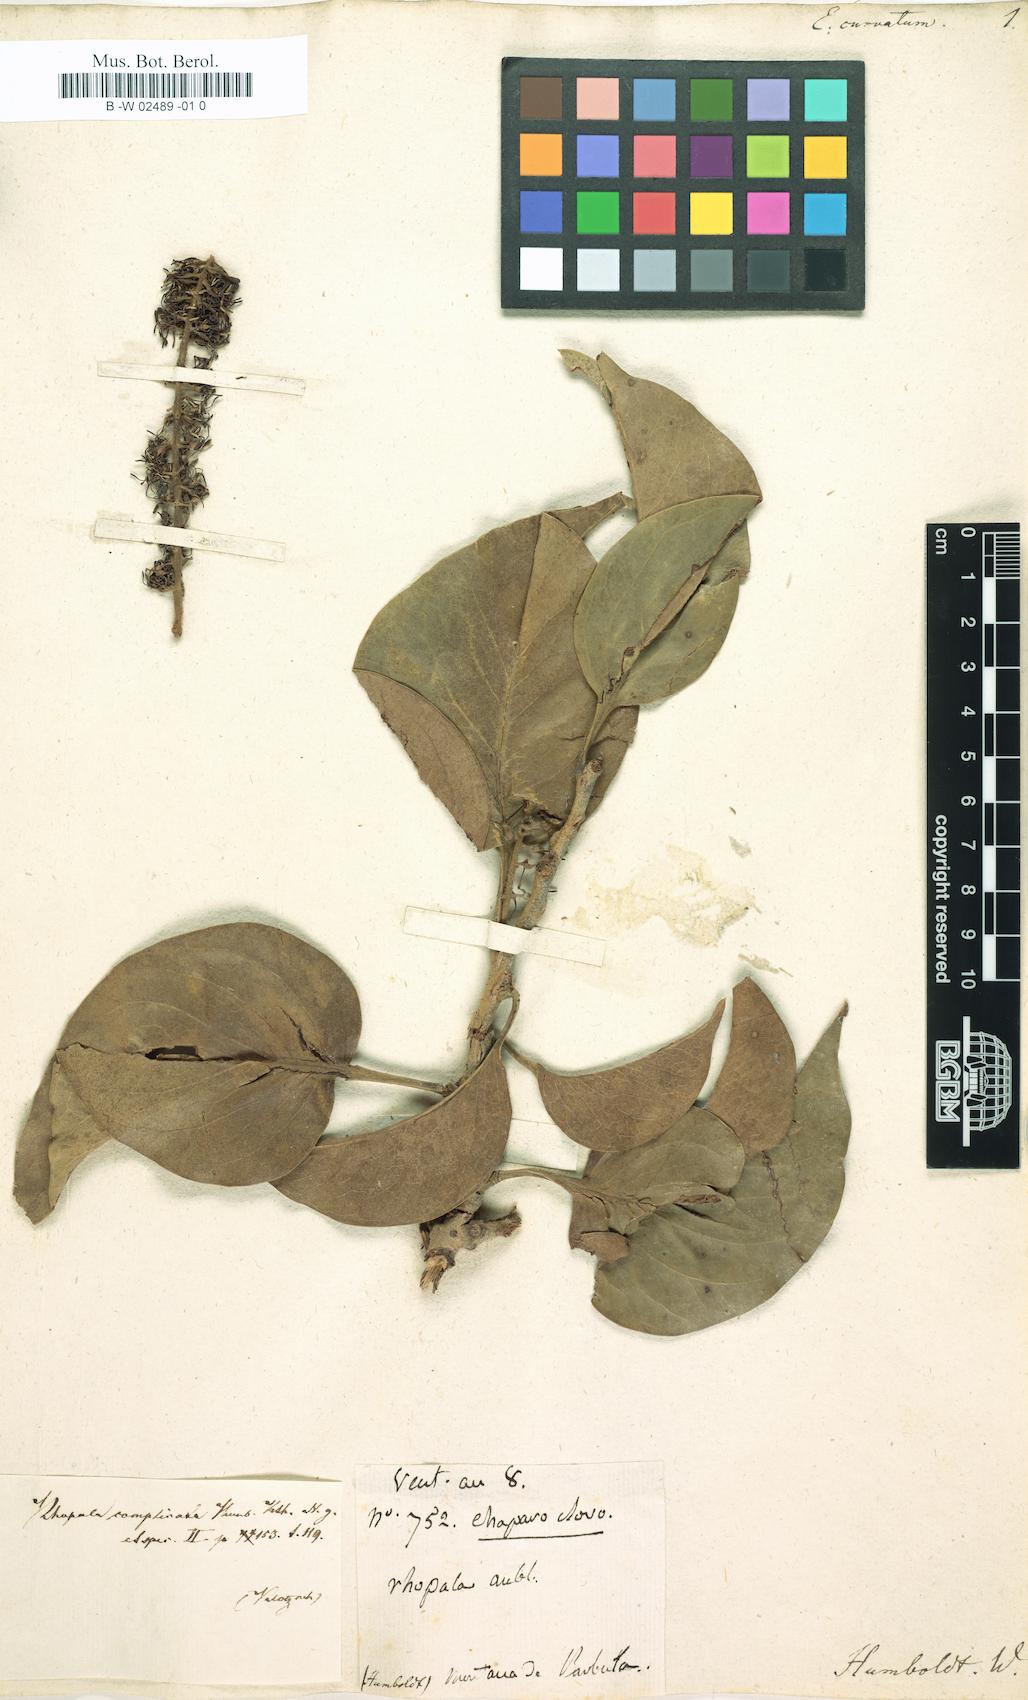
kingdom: Plantae
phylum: Tracheophyta
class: Magnoliopsida
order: Proteales
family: Proteaceae
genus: Roupala
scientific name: Roupala montana
